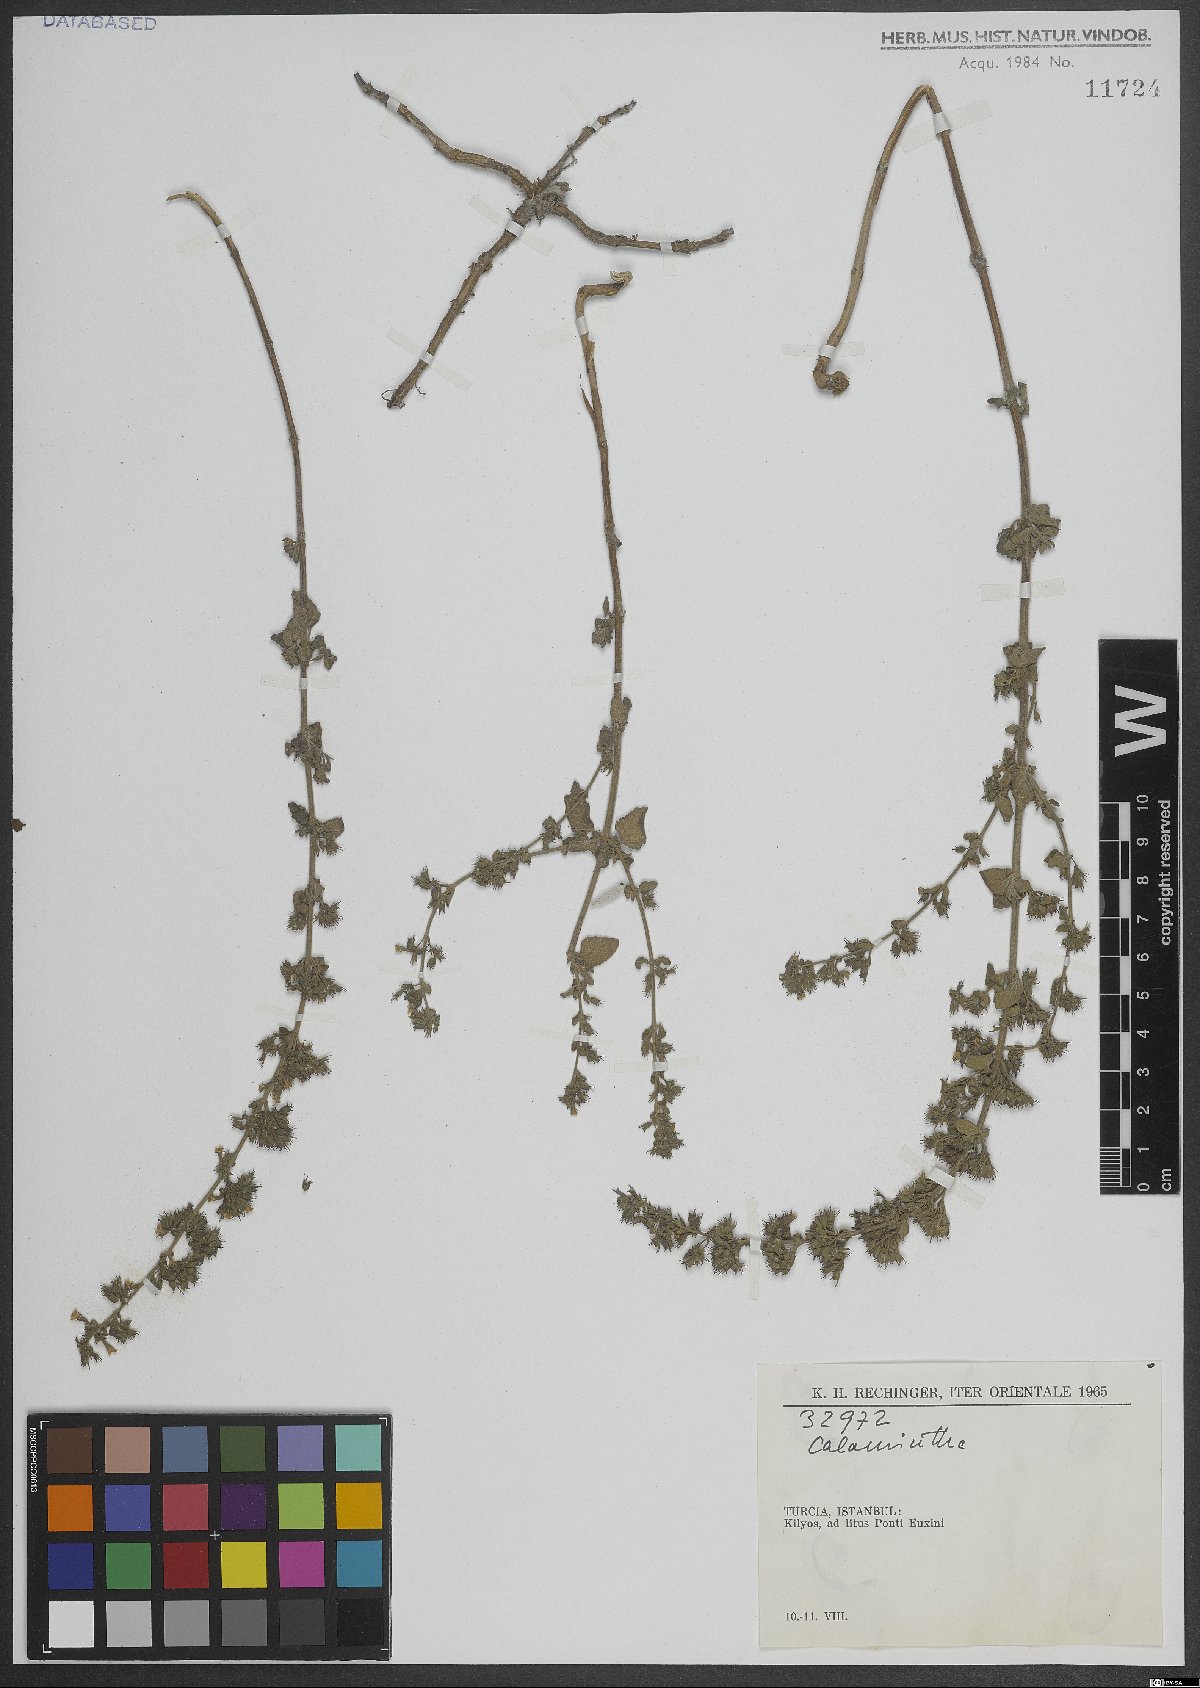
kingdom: Plantae
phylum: Tracheophyta
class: Magnoliopsida
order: Lamiales
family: Lamiaceae
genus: Calamintha
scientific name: Calamintha
